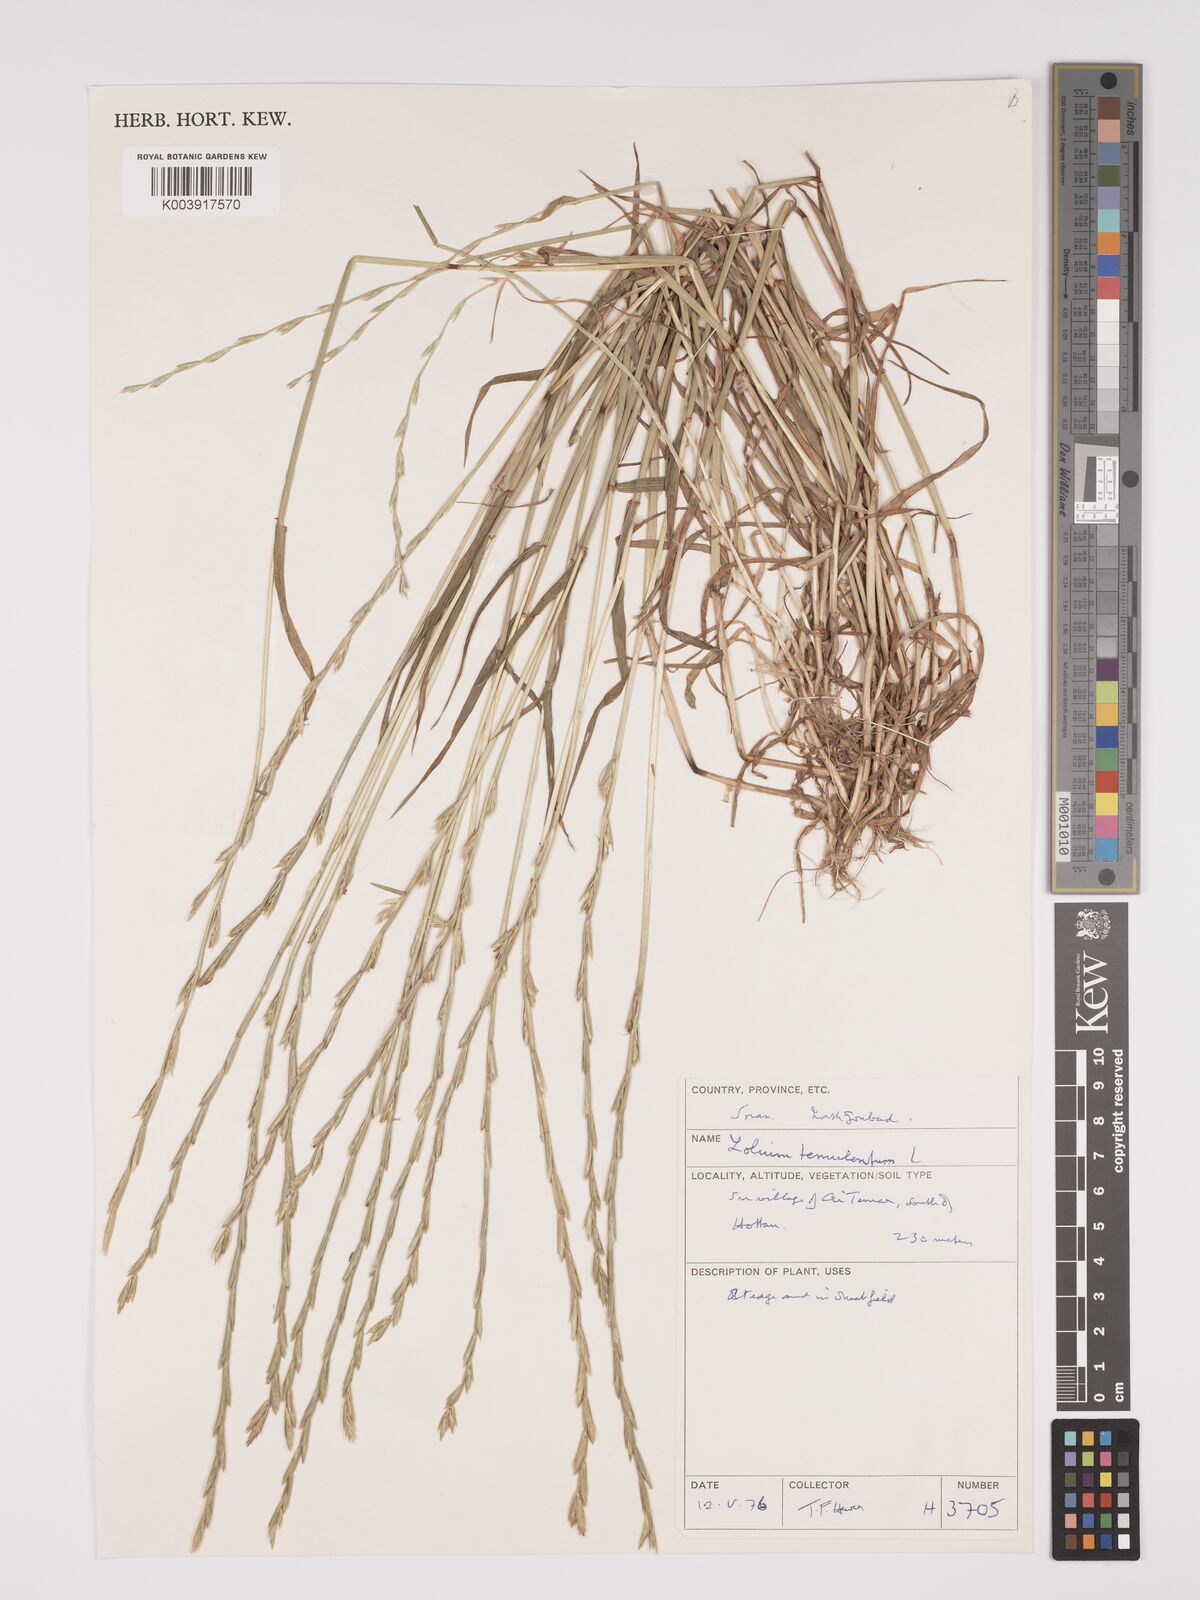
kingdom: Plantae
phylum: Tracheophyta
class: Liliopsida
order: Poales
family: Poaceae
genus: Lolium
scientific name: Lolium temulentum
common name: Darnel
